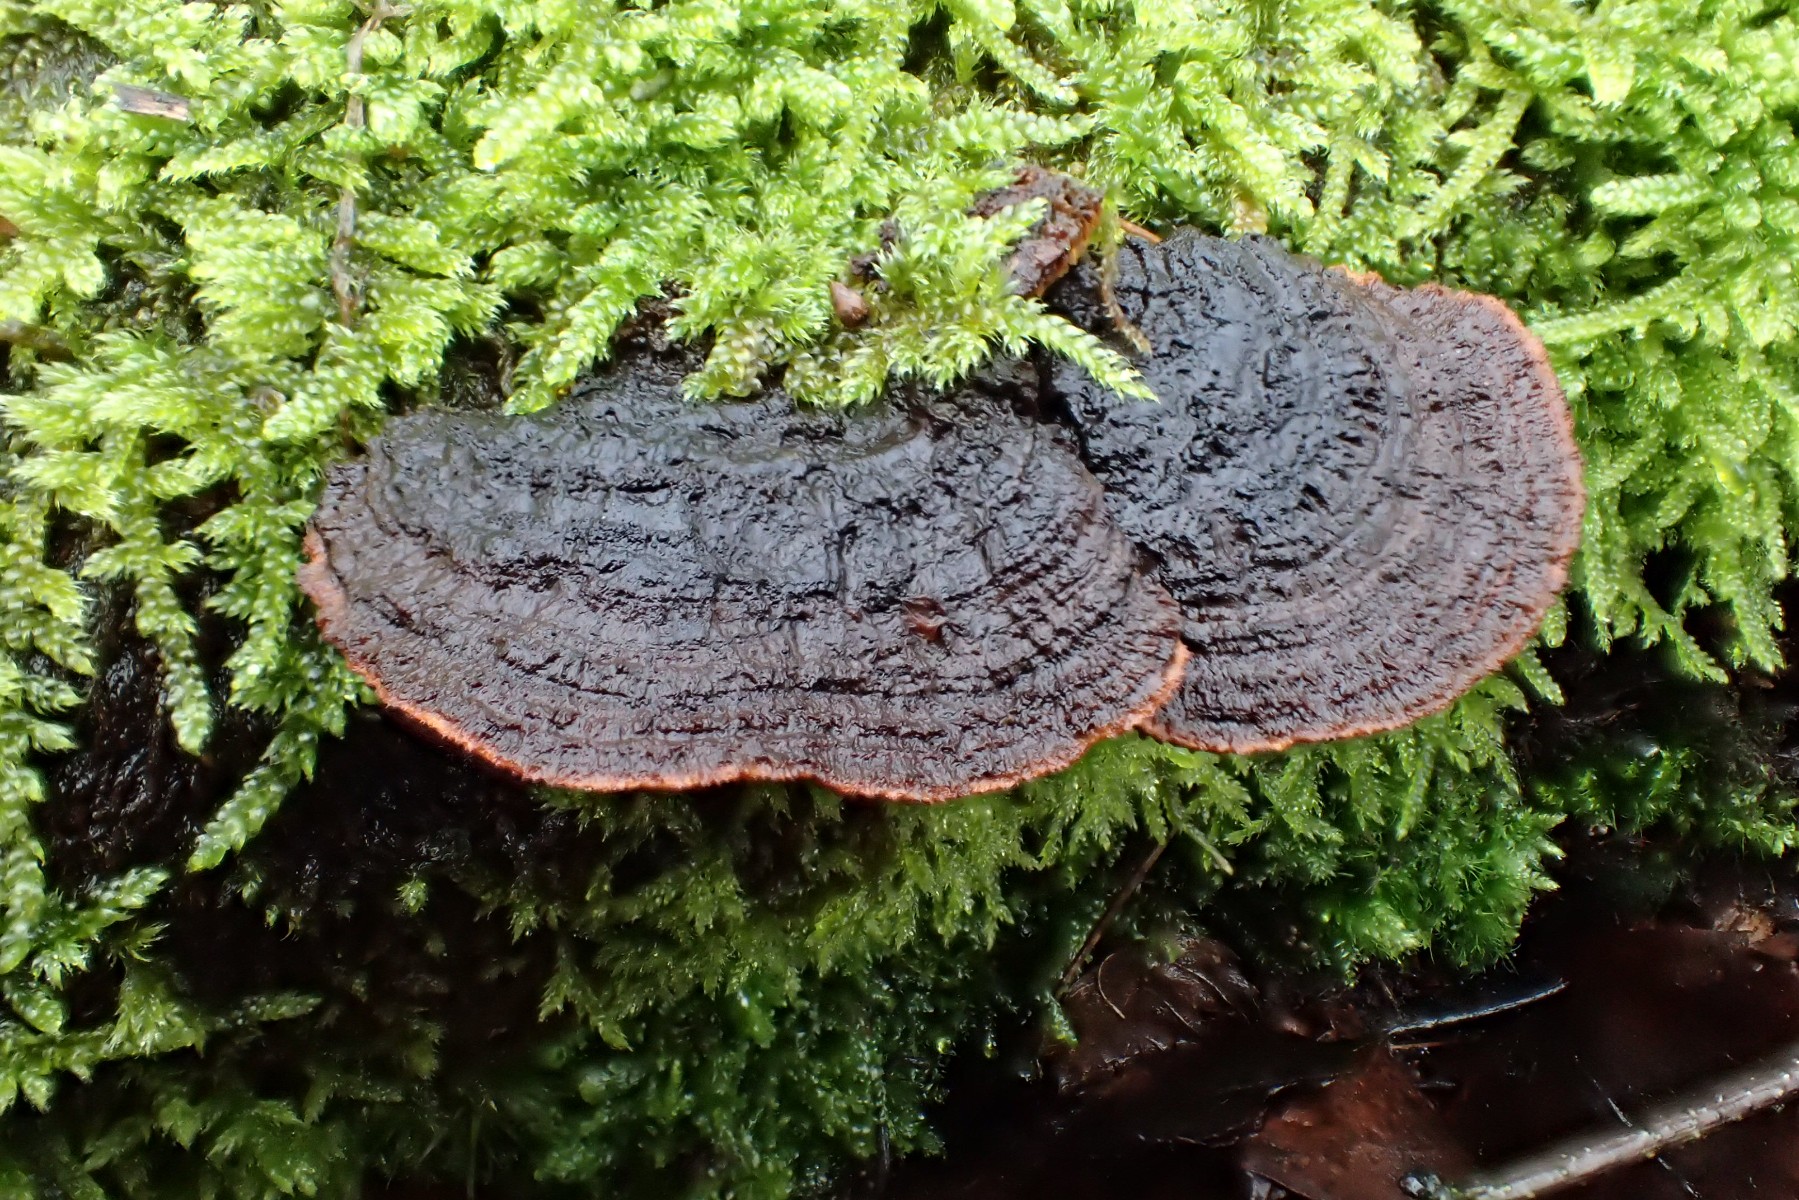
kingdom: Fungi
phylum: Basidiomycota
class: Agaricomycetes
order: Gloeophyllales
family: Gloeophyllaceae
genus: Gloeophyllum
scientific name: Gloeophyllum sepiarium
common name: fyrre-korkhat
